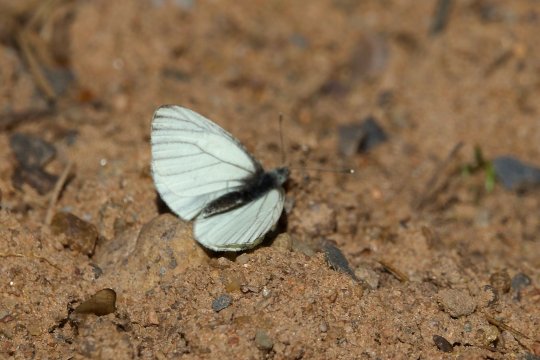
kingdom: Animalia
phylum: Arthropoda
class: Insecta
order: Lepidoptera
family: Pieridae
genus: Pieris
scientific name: Pieris oleracea
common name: Mustard White
